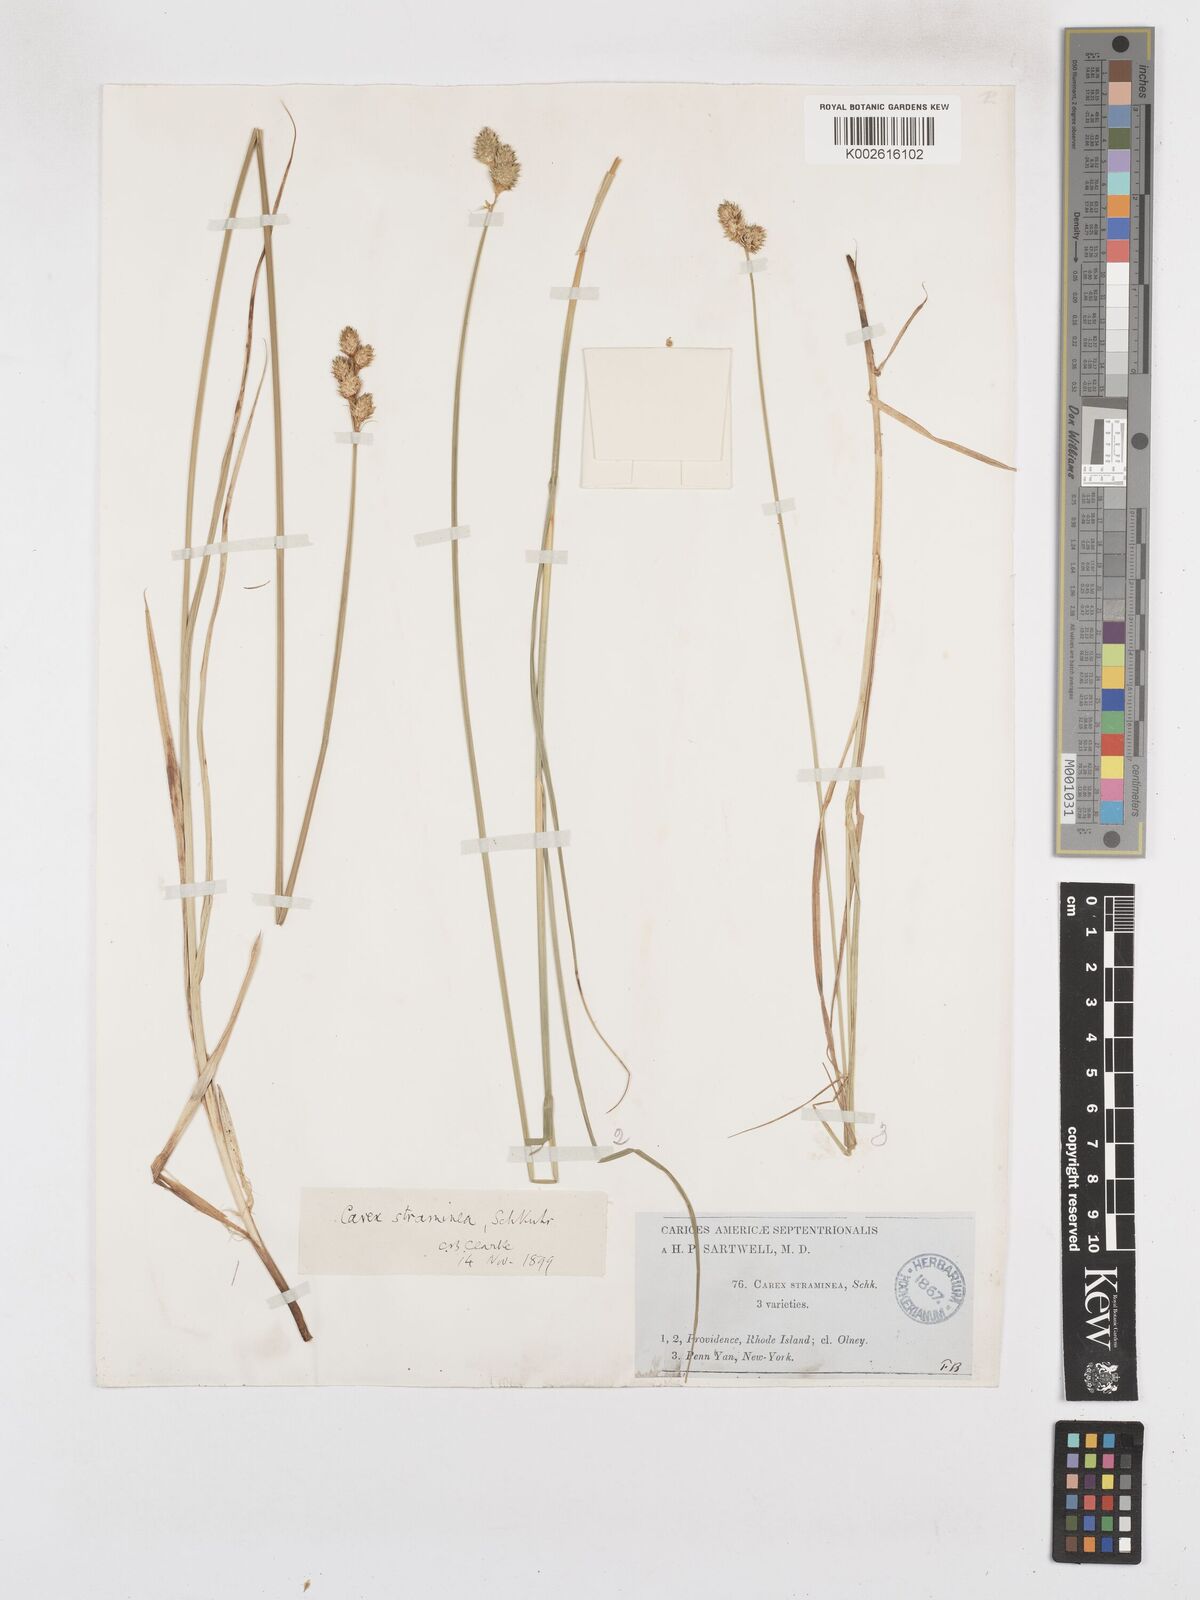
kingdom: Plantae
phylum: Tracheophyta
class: Liliopsida
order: Poales
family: Cyperaceae
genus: Carex
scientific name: Carex brevior
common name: Brevior sedge
